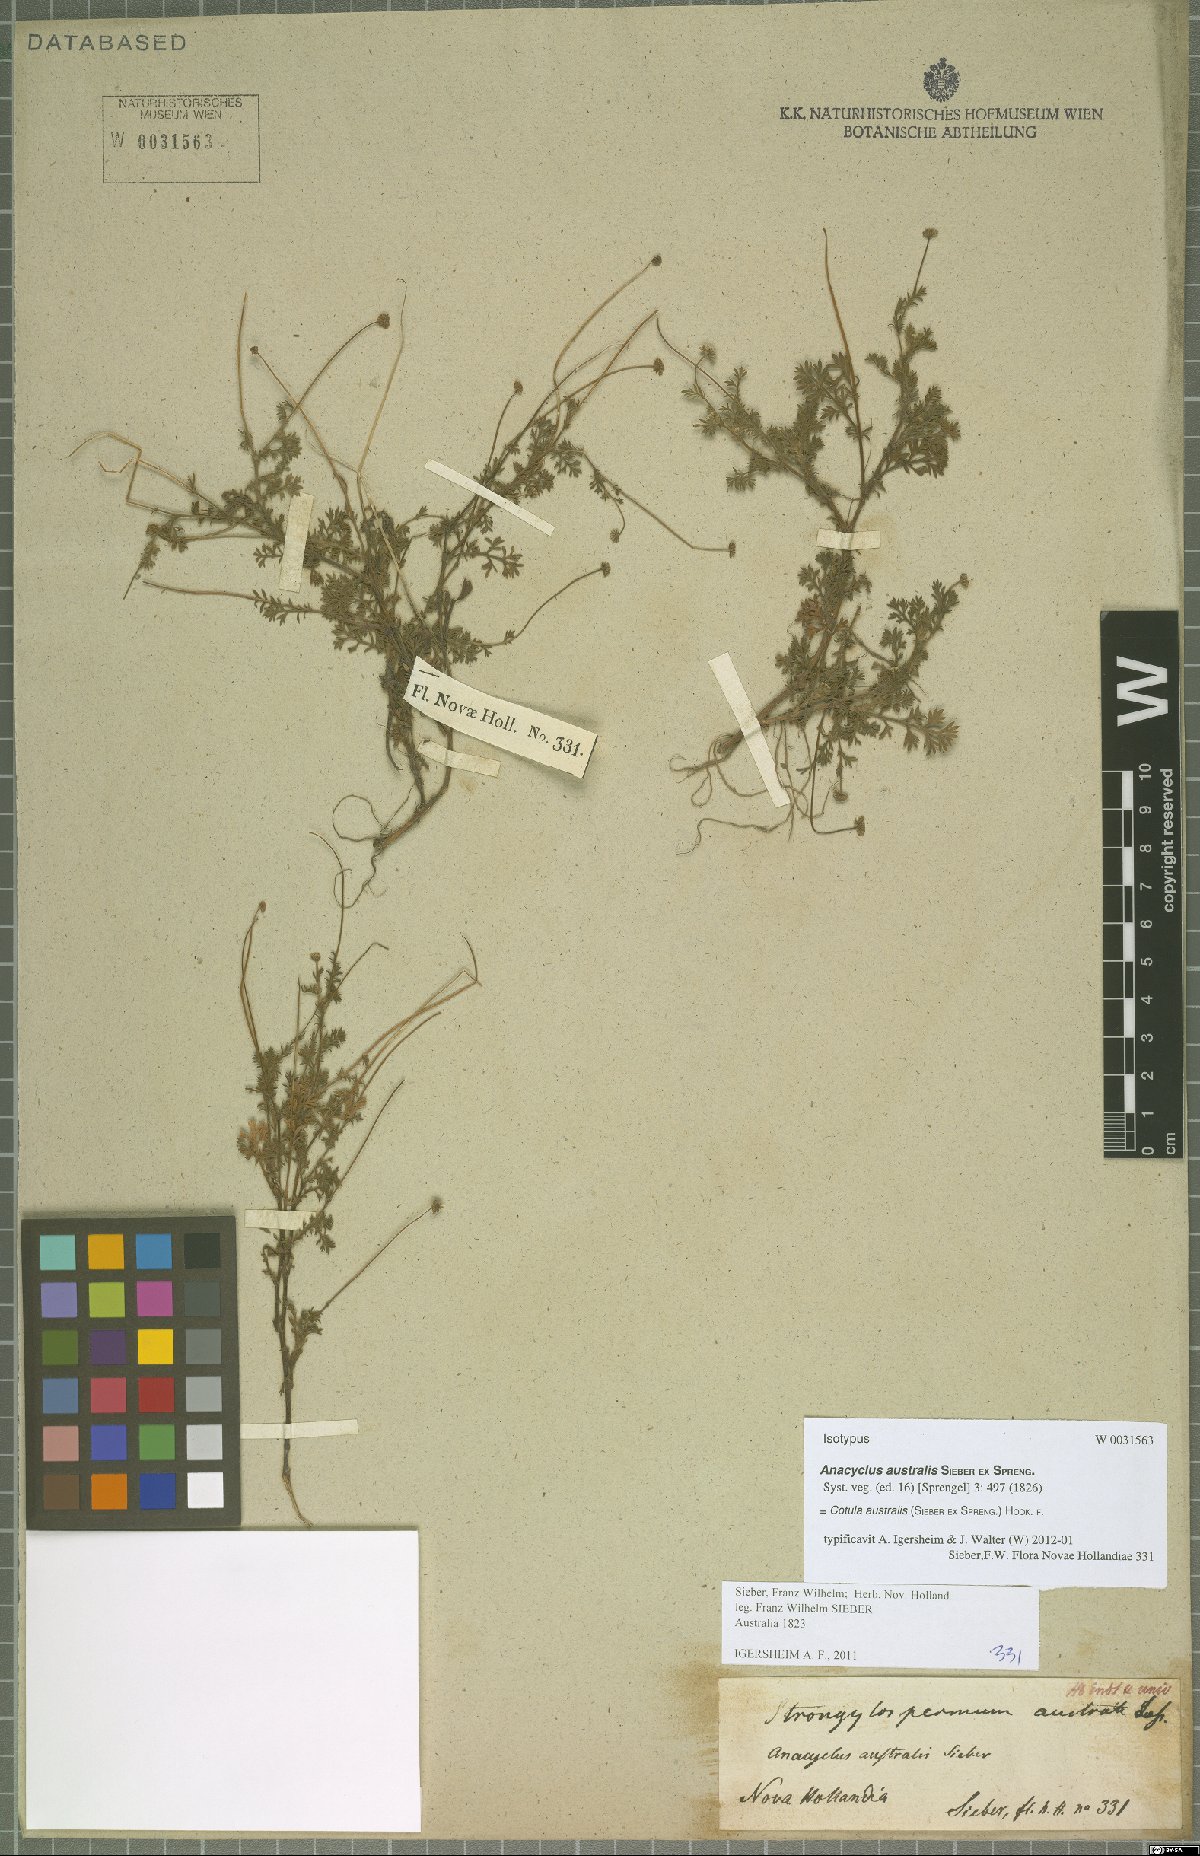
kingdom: Plantae
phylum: Tracheophyta
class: Magnoliopsida
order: Asterales
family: Asteraceae
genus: Cotula
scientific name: Cotula australis
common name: Australian waterbuttons
